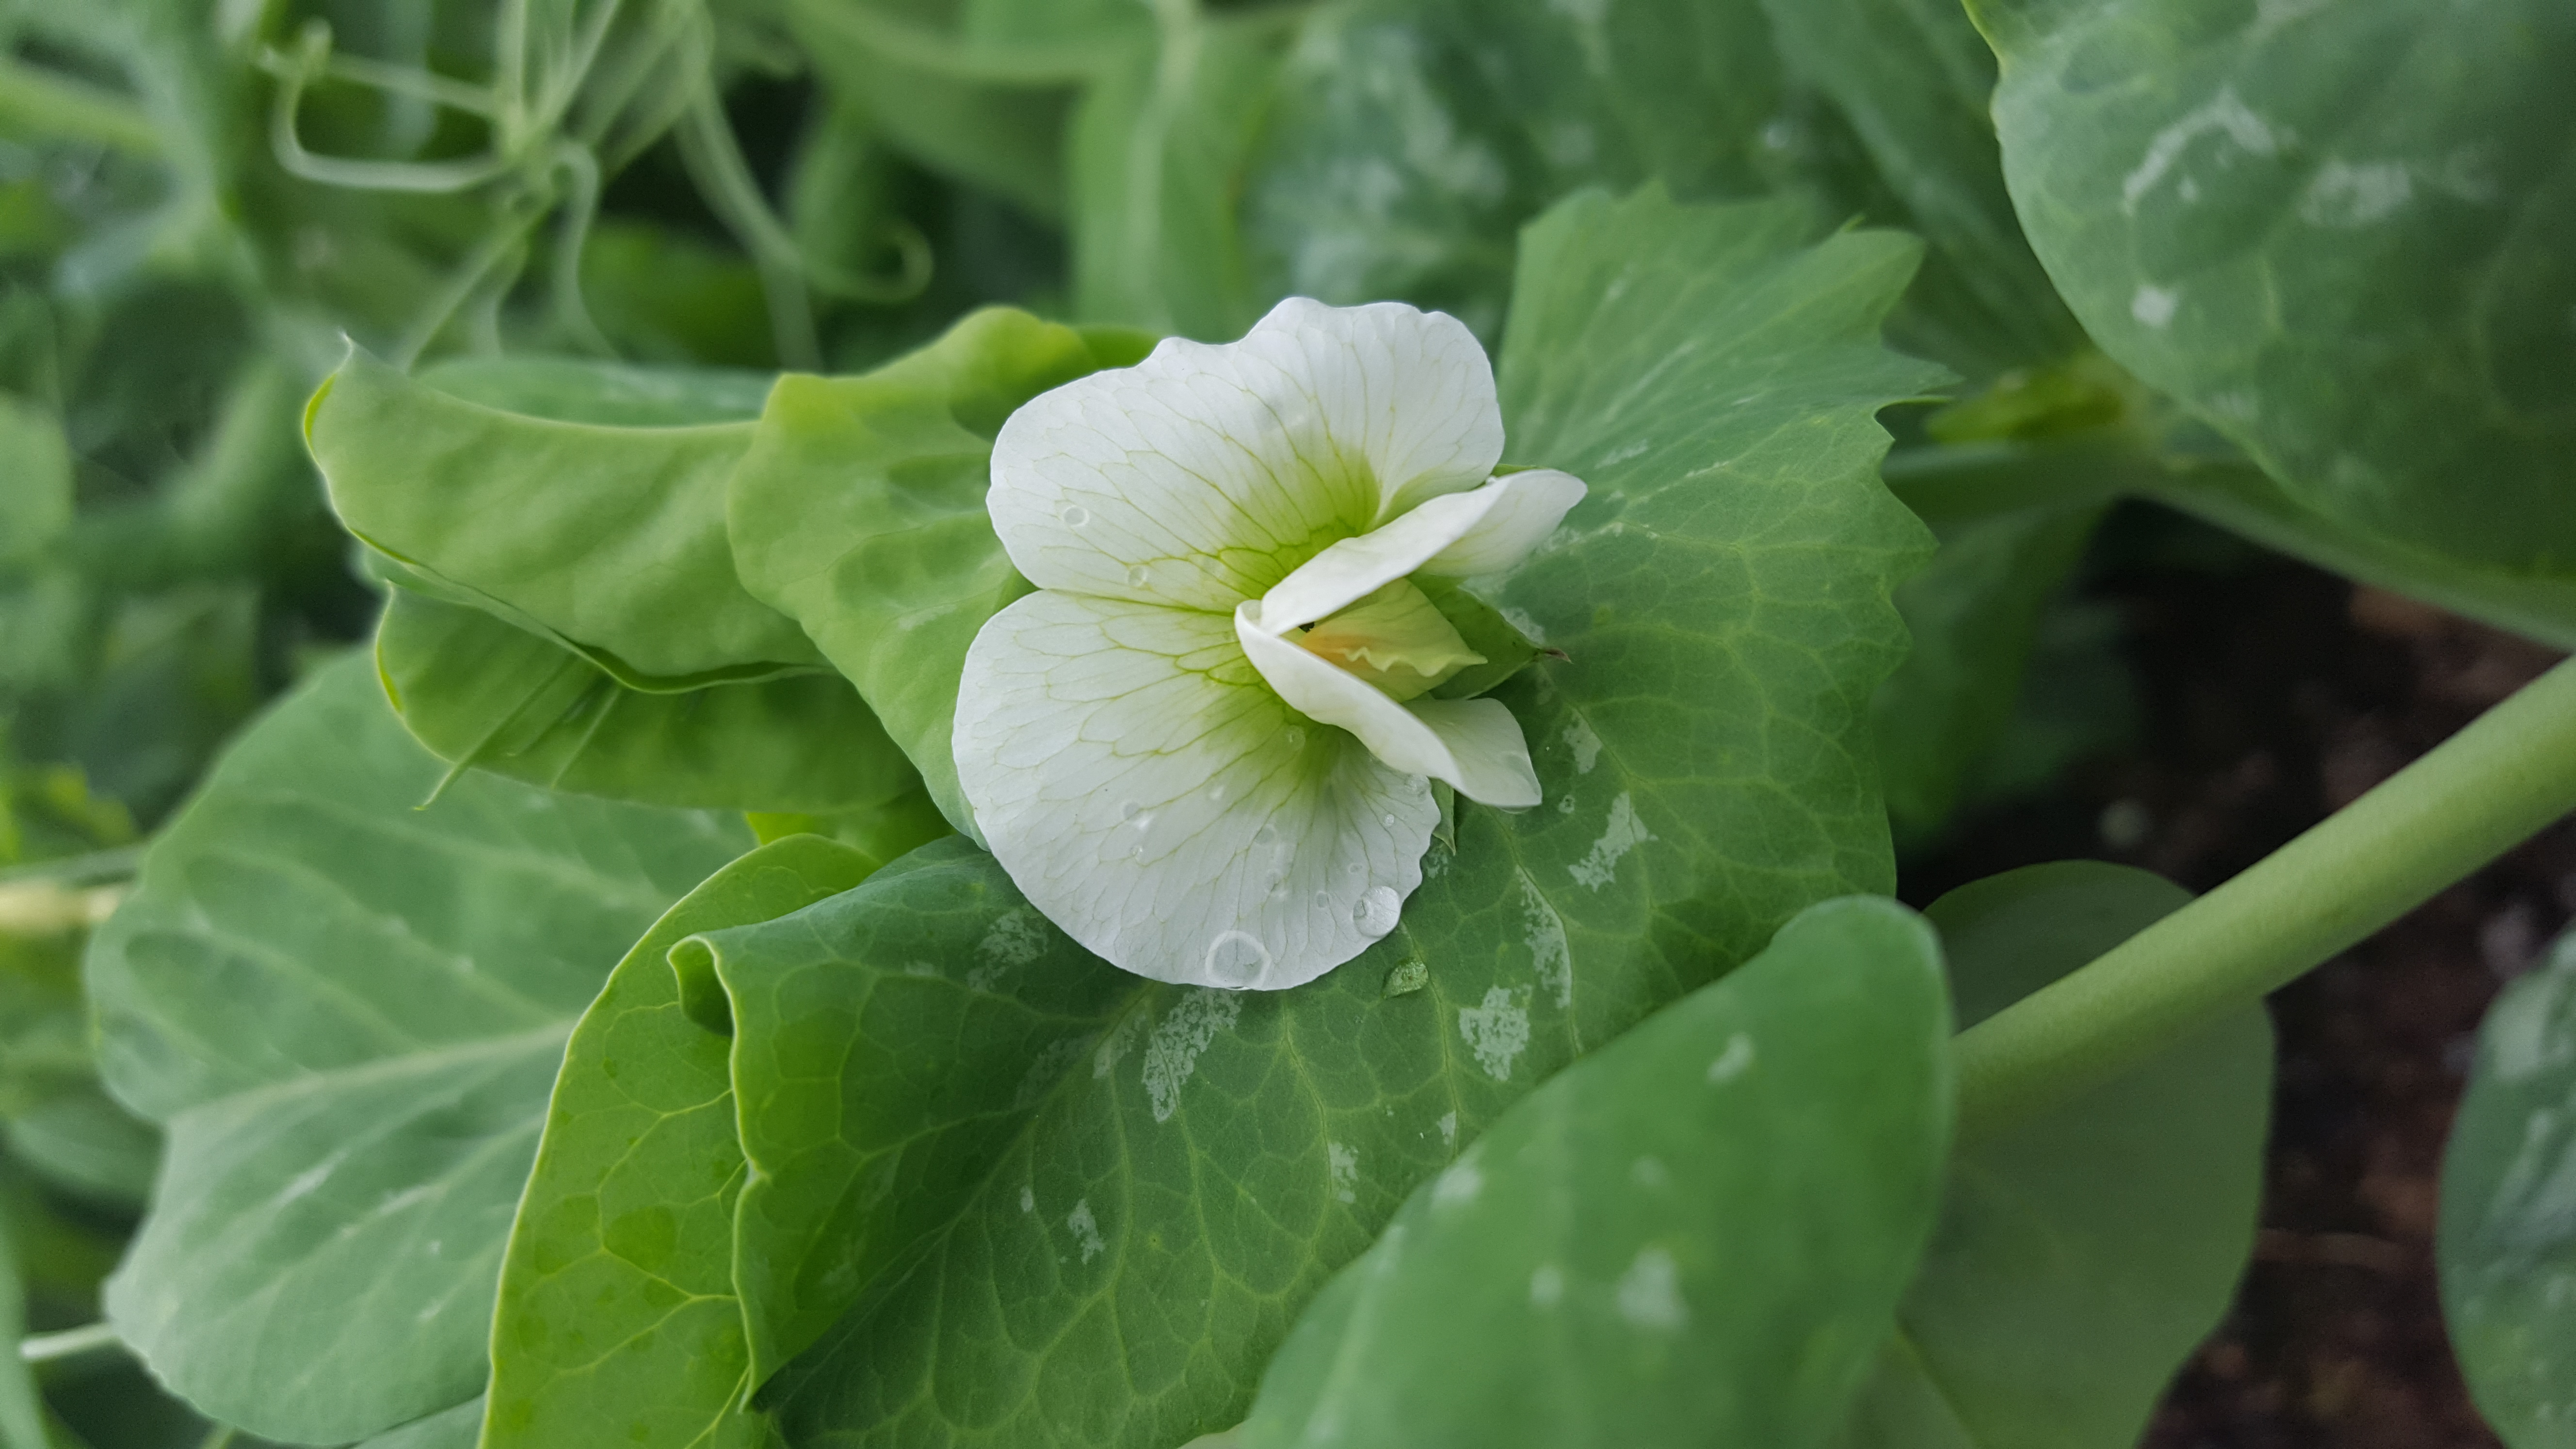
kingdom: Plantae
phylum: Tracheophyta
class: Magnoliopsida
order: Fabales
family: Fabaceae
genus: Lathyrus
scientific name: Lathyrus oleraceus
